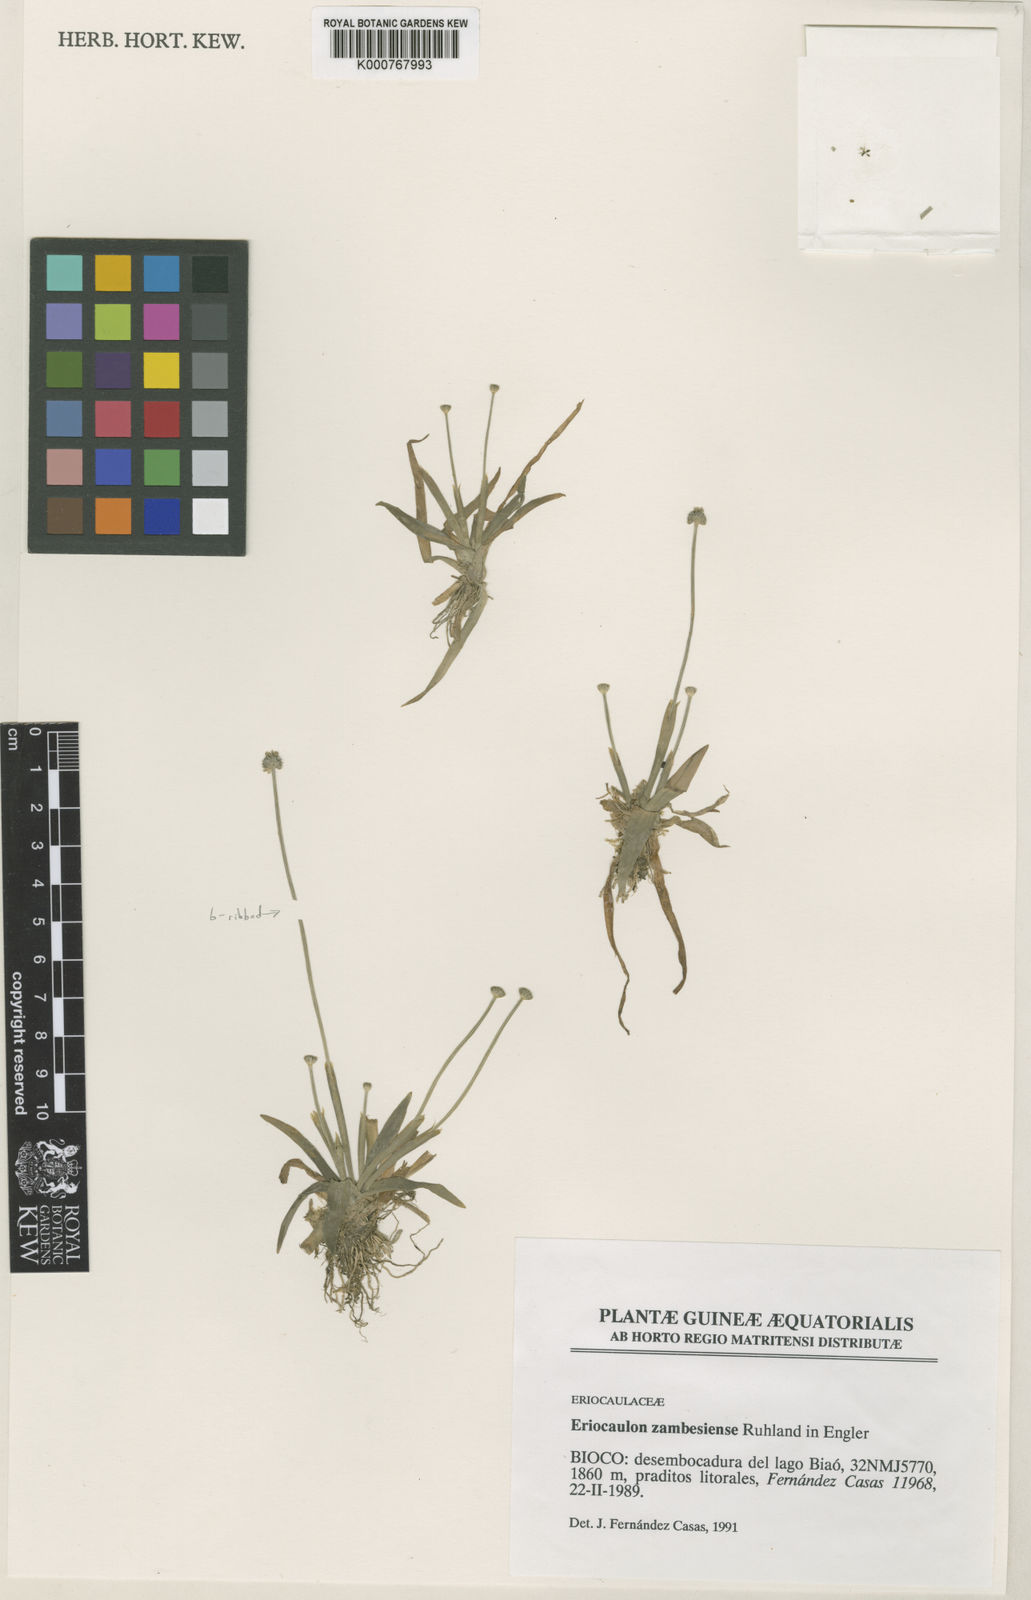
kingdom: Plantae
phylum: Tracheophyta
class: Liliopsida
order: Poales
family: Eriocaulaceae
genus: Eriocaulon
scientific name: Eriocaulon zambesiense
